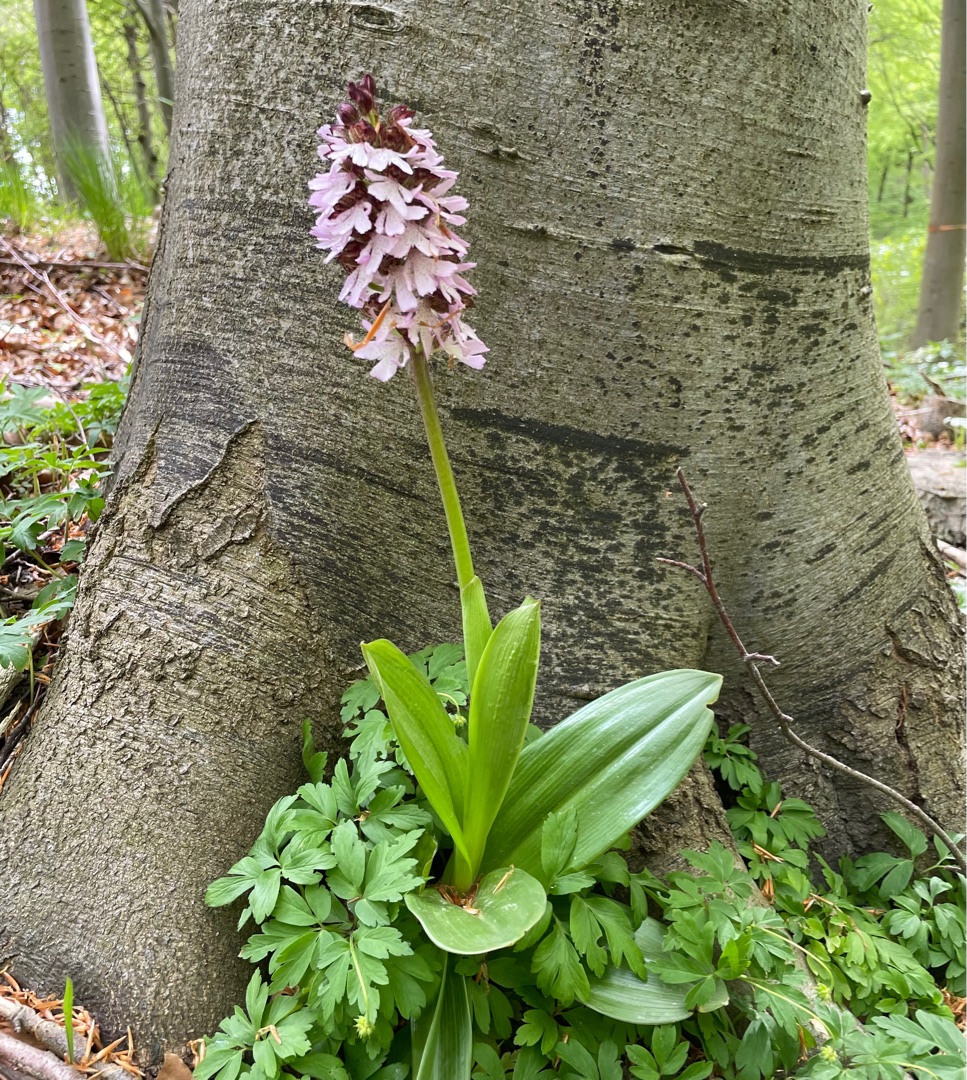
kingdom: Plantae
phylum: Tracheophyta
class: Liliopsida
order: Asparagales
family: Orchidaceae
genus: Orchis
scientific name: Orchis purpurea
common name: Stor gøgeurt
